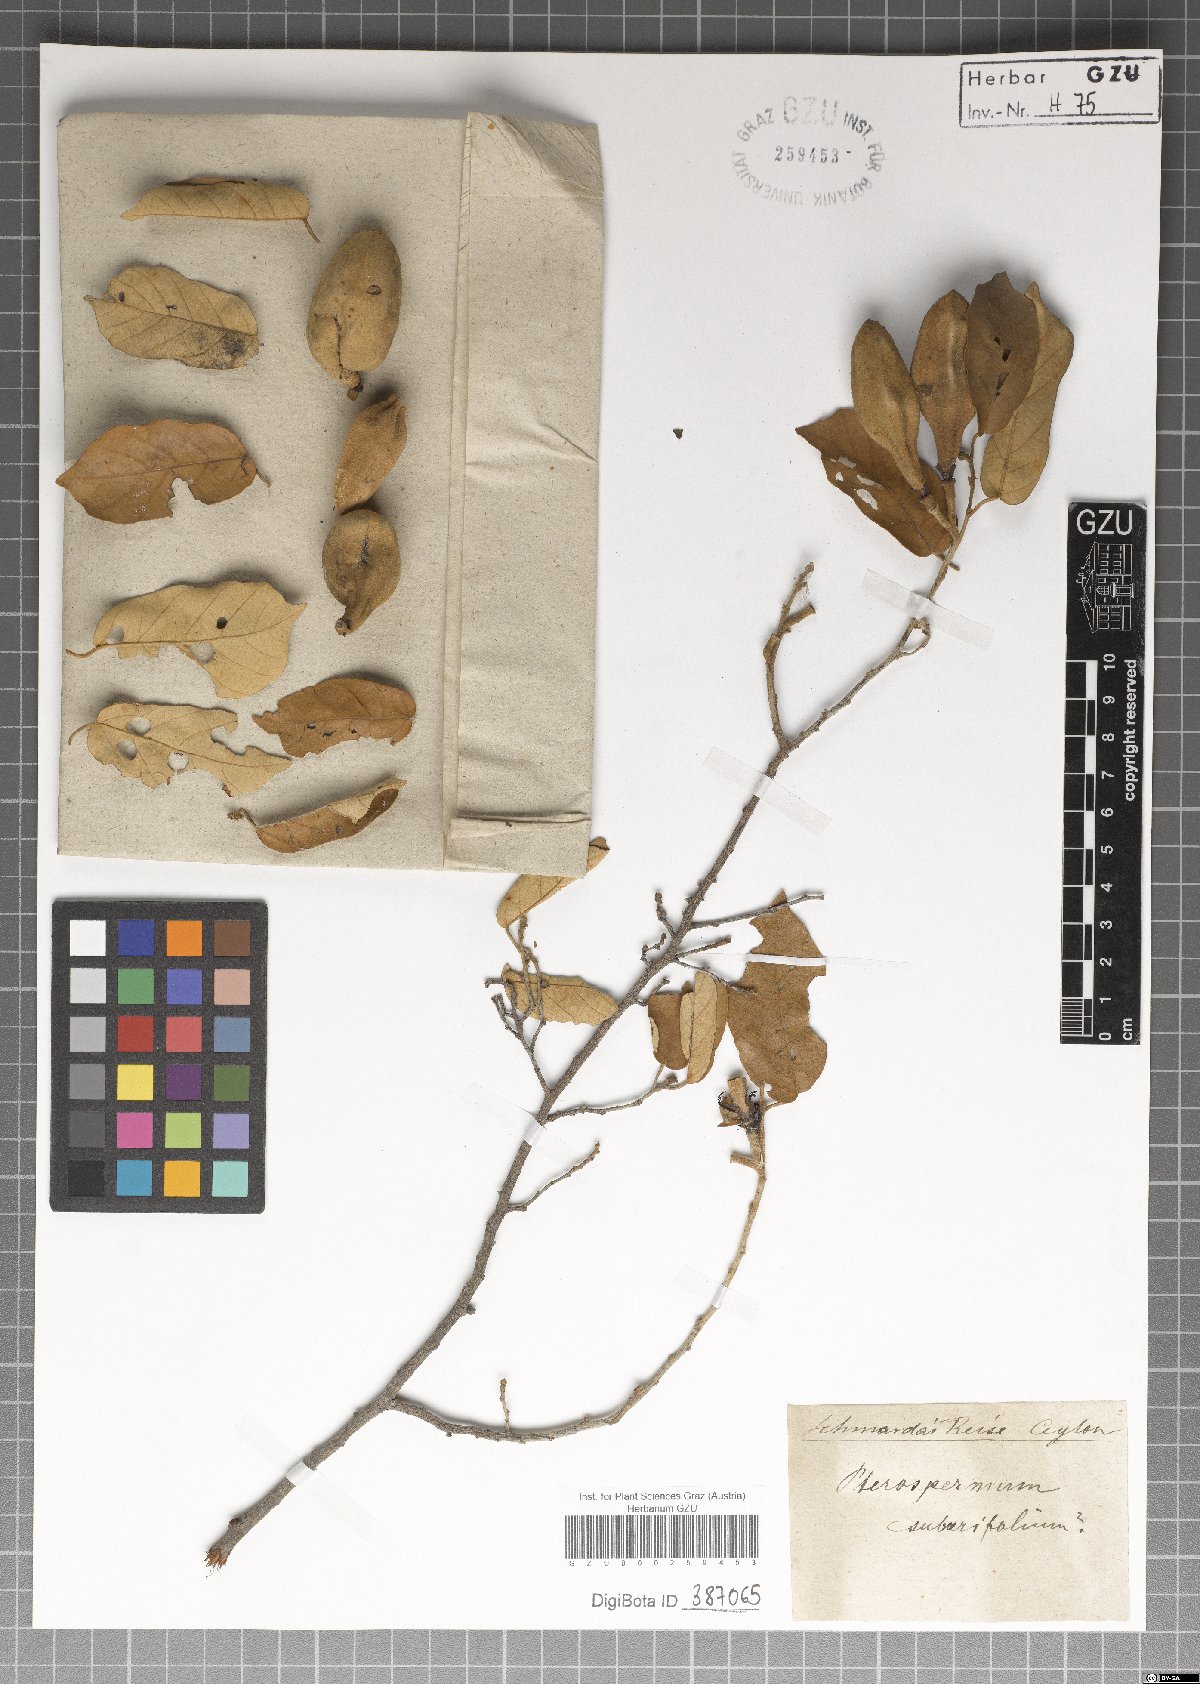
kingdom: Plantae
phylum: Tracheophyta
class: Magnoliopsida
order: Malvales
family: Malvaceae
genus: Pterospermum
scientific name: Pterospermum suberifolium
